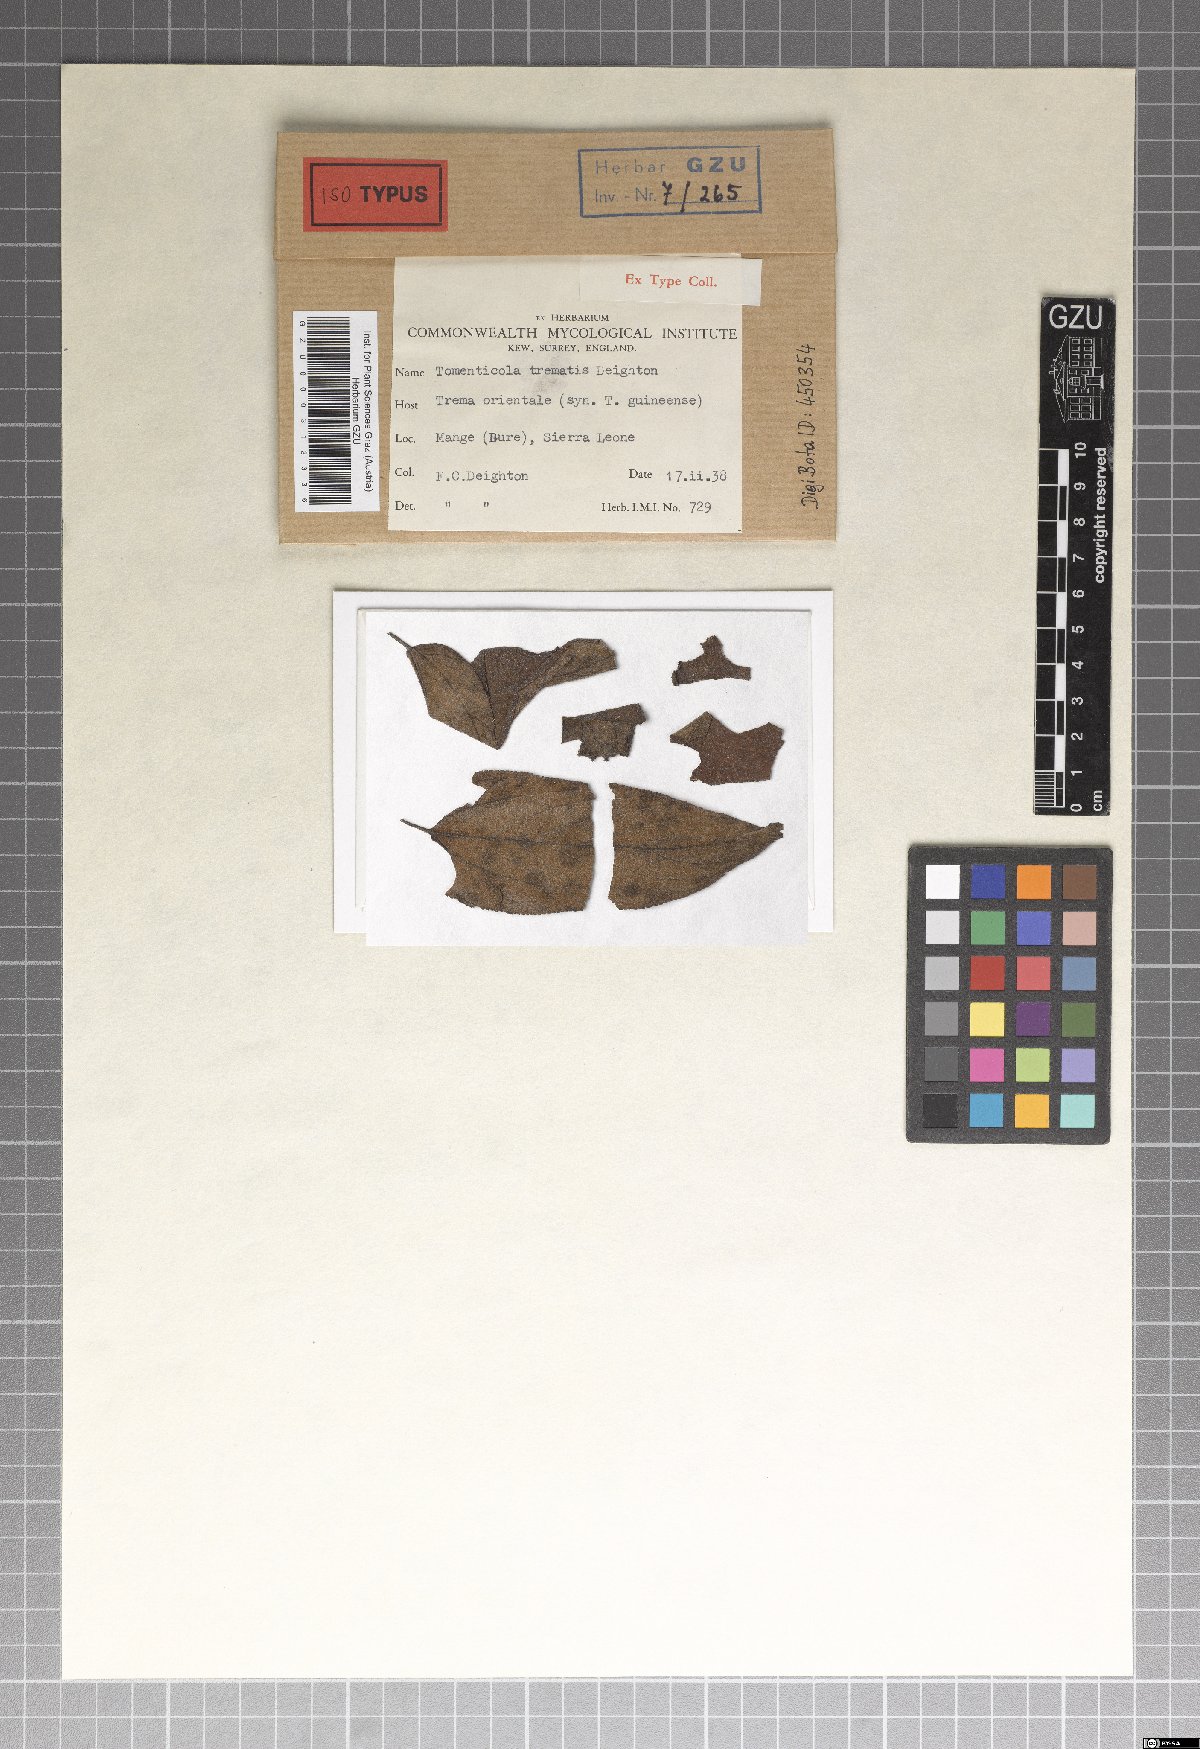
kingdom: Fungi
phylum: Ascomycota
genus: Tomenticola
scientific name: Tomenticola trematis
